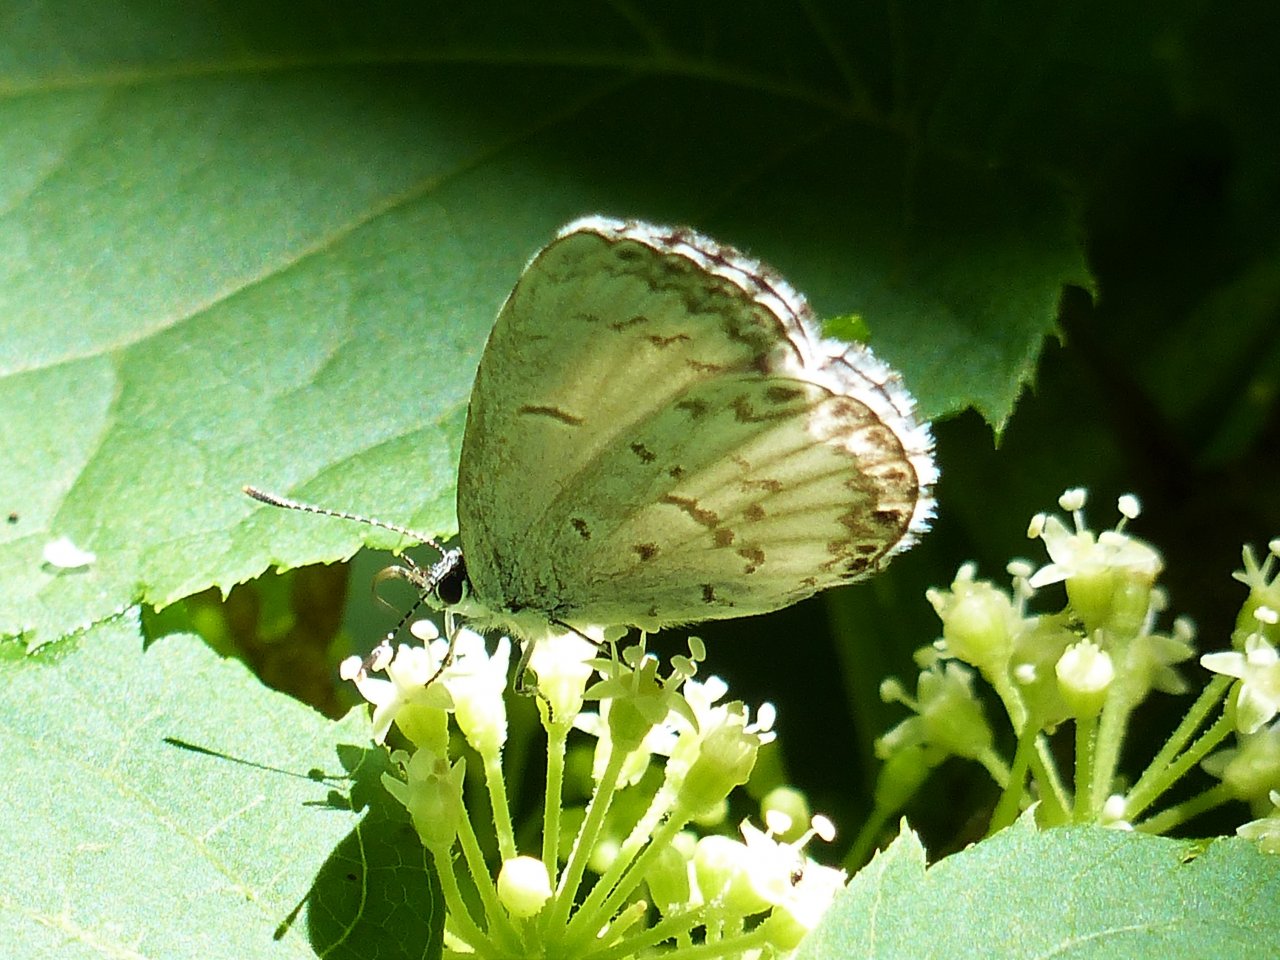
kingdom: Animalia
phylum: Arthropoda
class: Insecta
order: Lepidoptera
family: Lycaenidae
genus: Celastrina
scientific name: Celastrina lucia
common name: Northern Spring Azure
